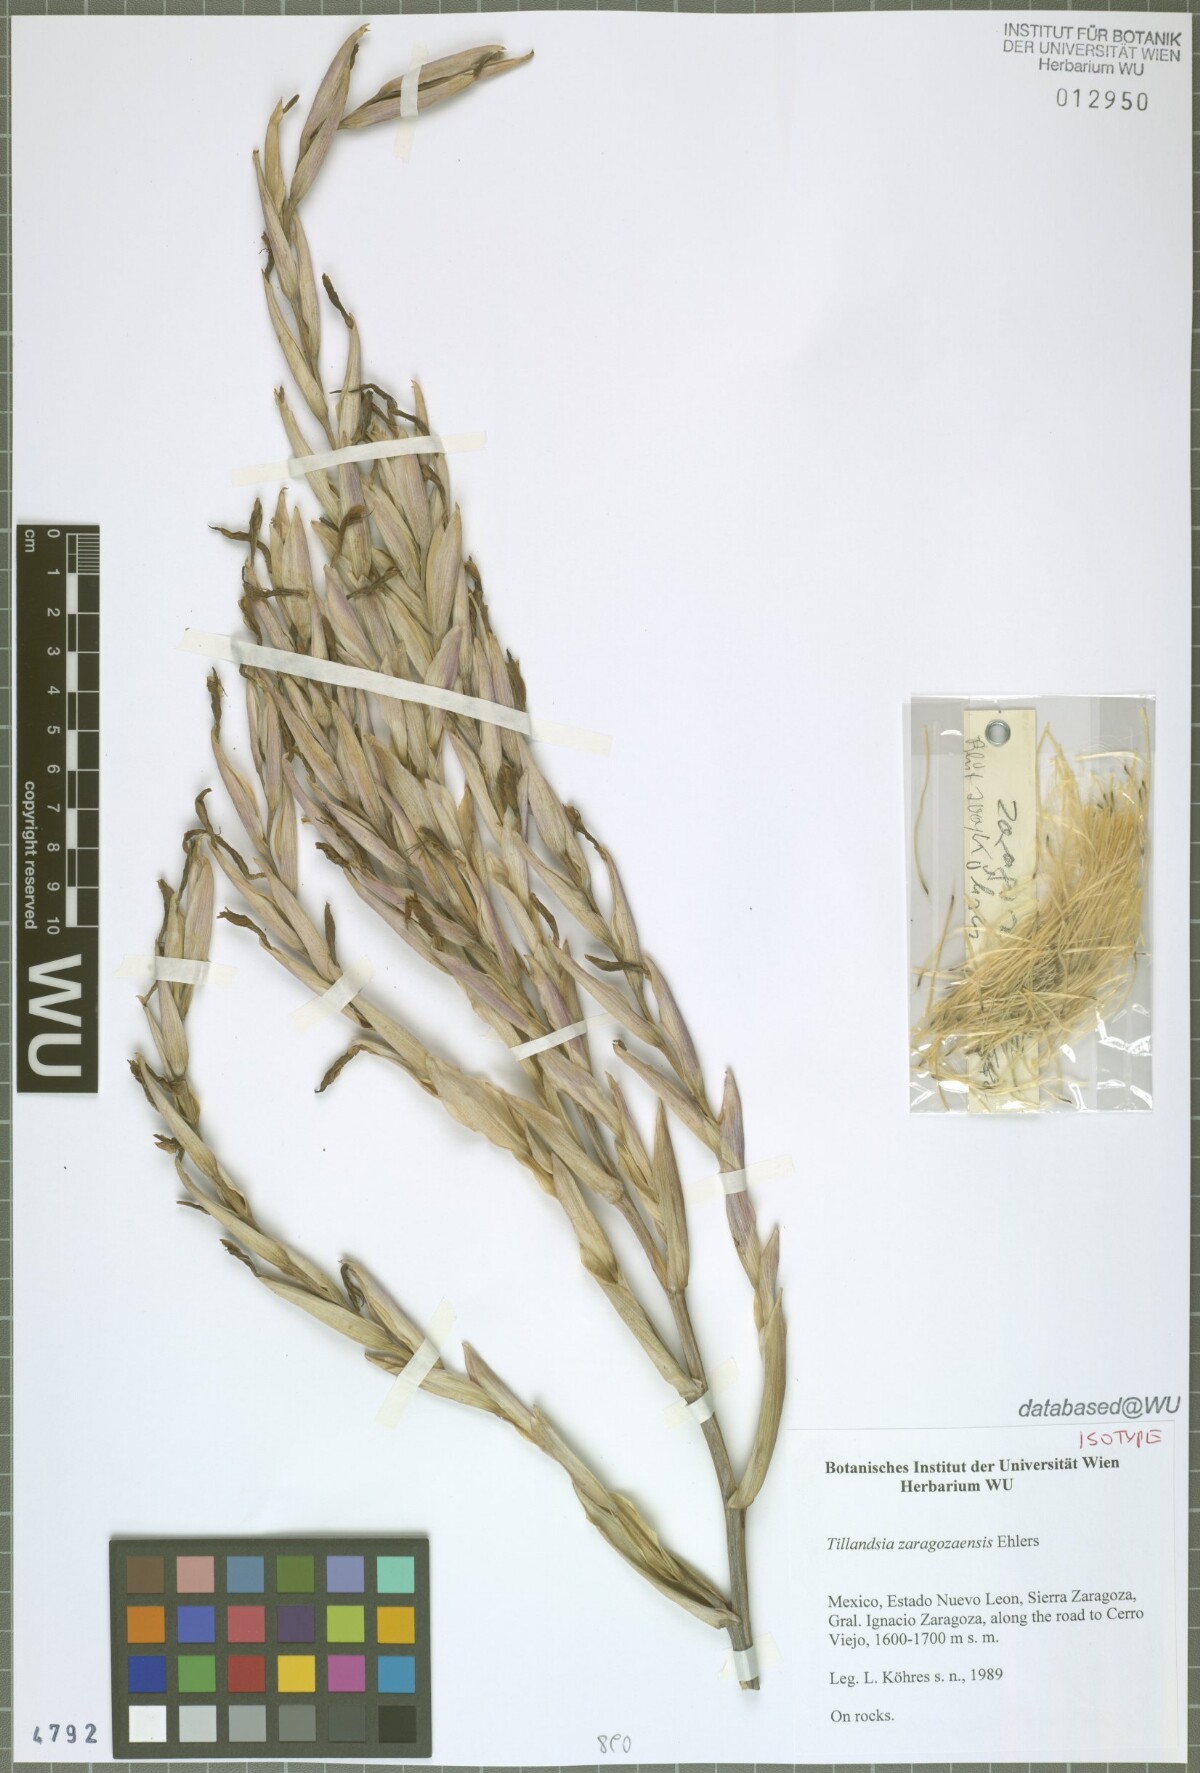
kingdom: Plantae
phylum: Tracheophyta
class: Liliopsida
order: Poales
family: Bromeliaceae
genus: Tillandsia
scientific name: Tillandsia zaragozaensis
